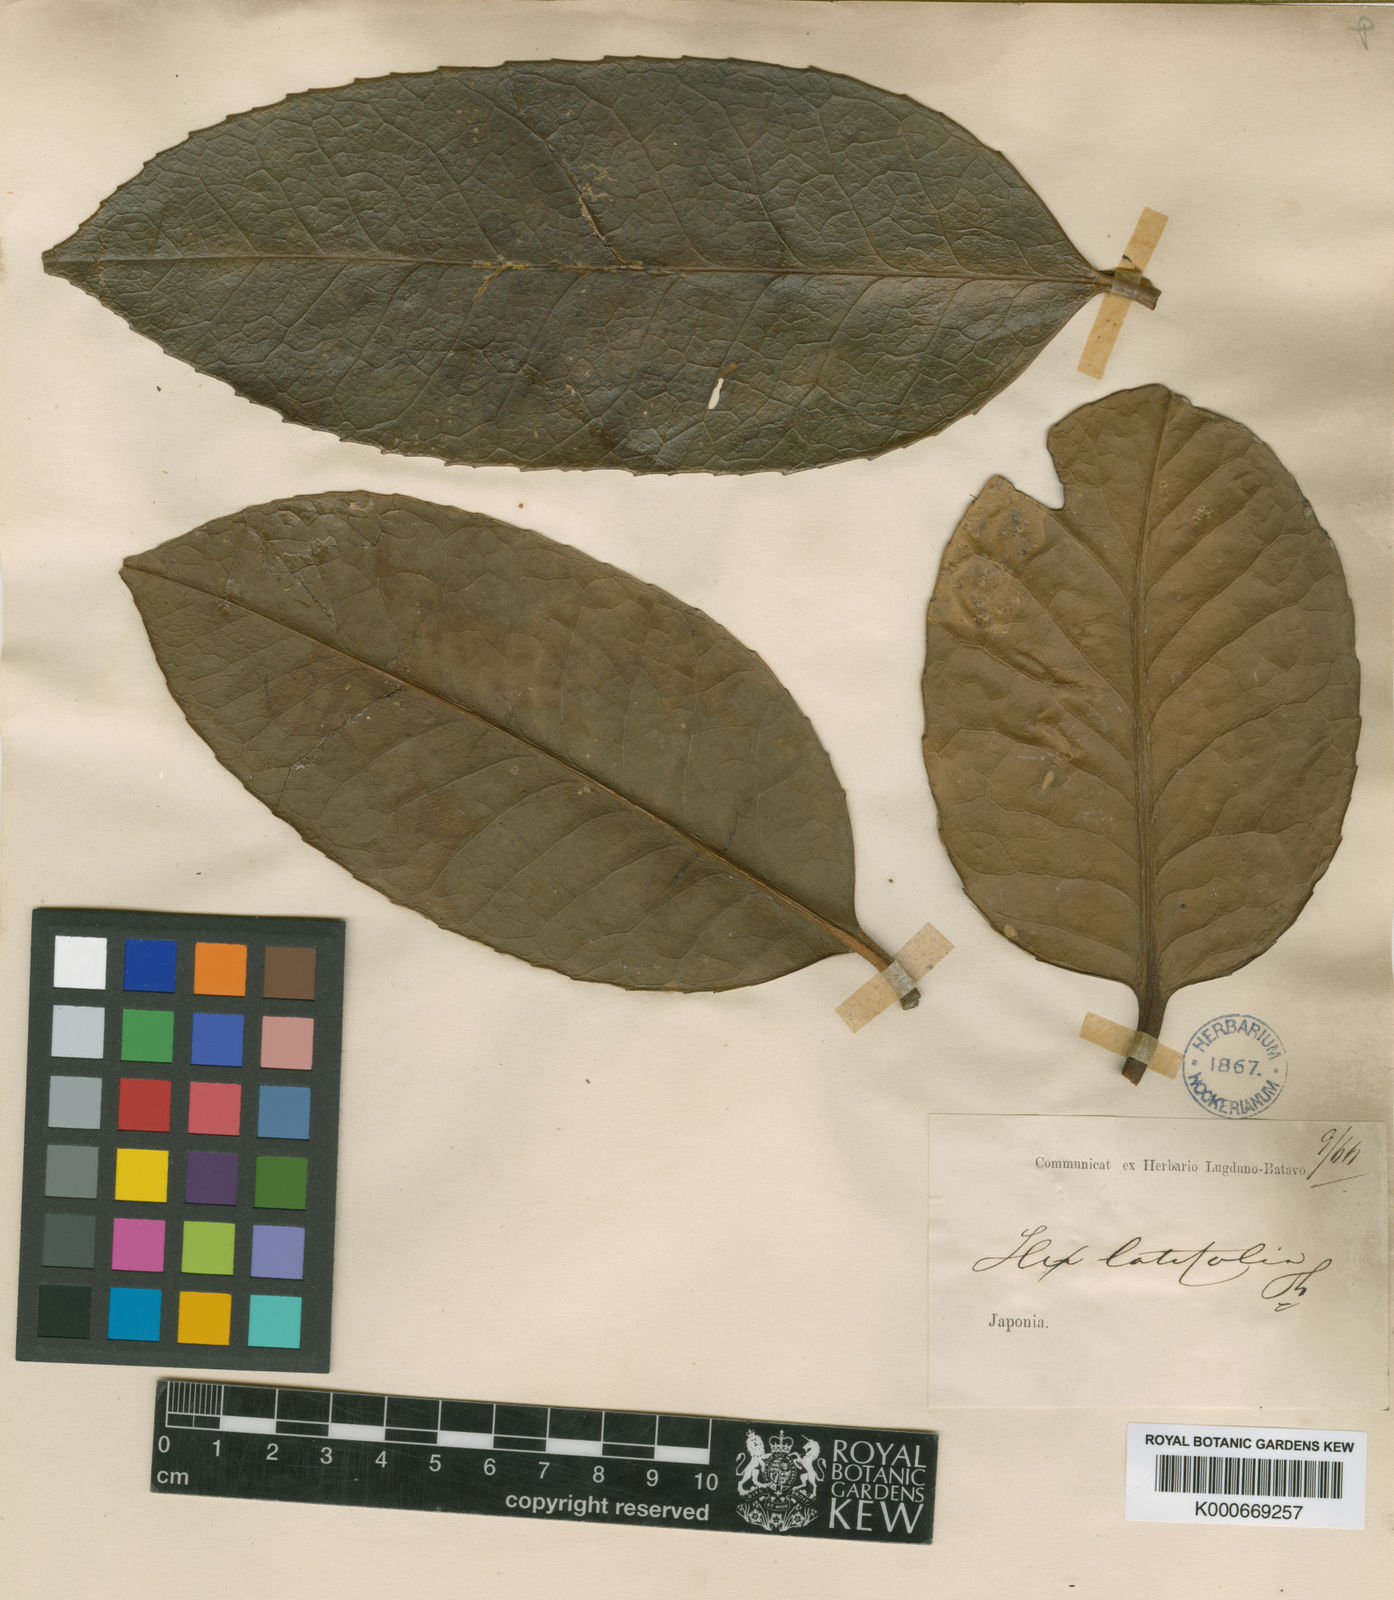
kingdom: Plantae
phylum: Tracheophyta
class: Magnoliopsida
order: Aquifoliales
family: Aquifoliaceae
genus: Ilex
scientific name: Ilex latifolia
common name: Tarajo holly
